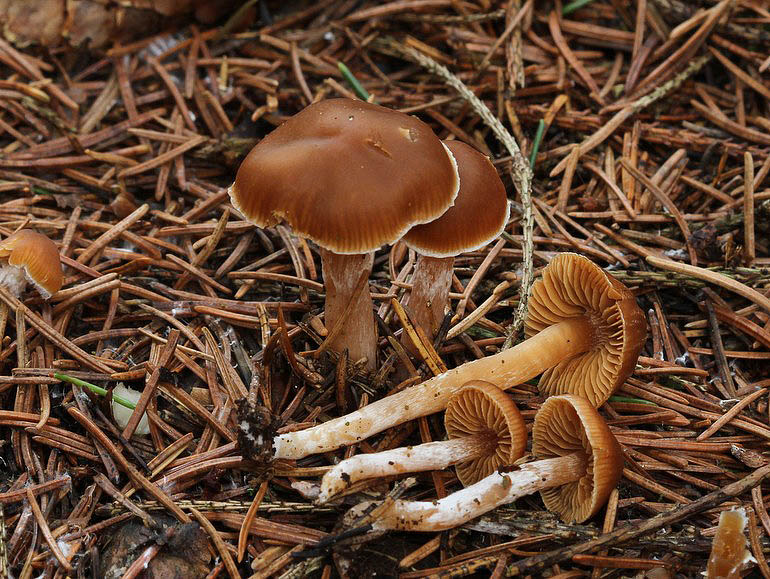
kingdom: Fungi
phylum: Basidiomycota
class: Agaricomycetes
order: Agaricales
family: Cortinariaceae
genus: Cortinarius
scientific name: Cortinarius
